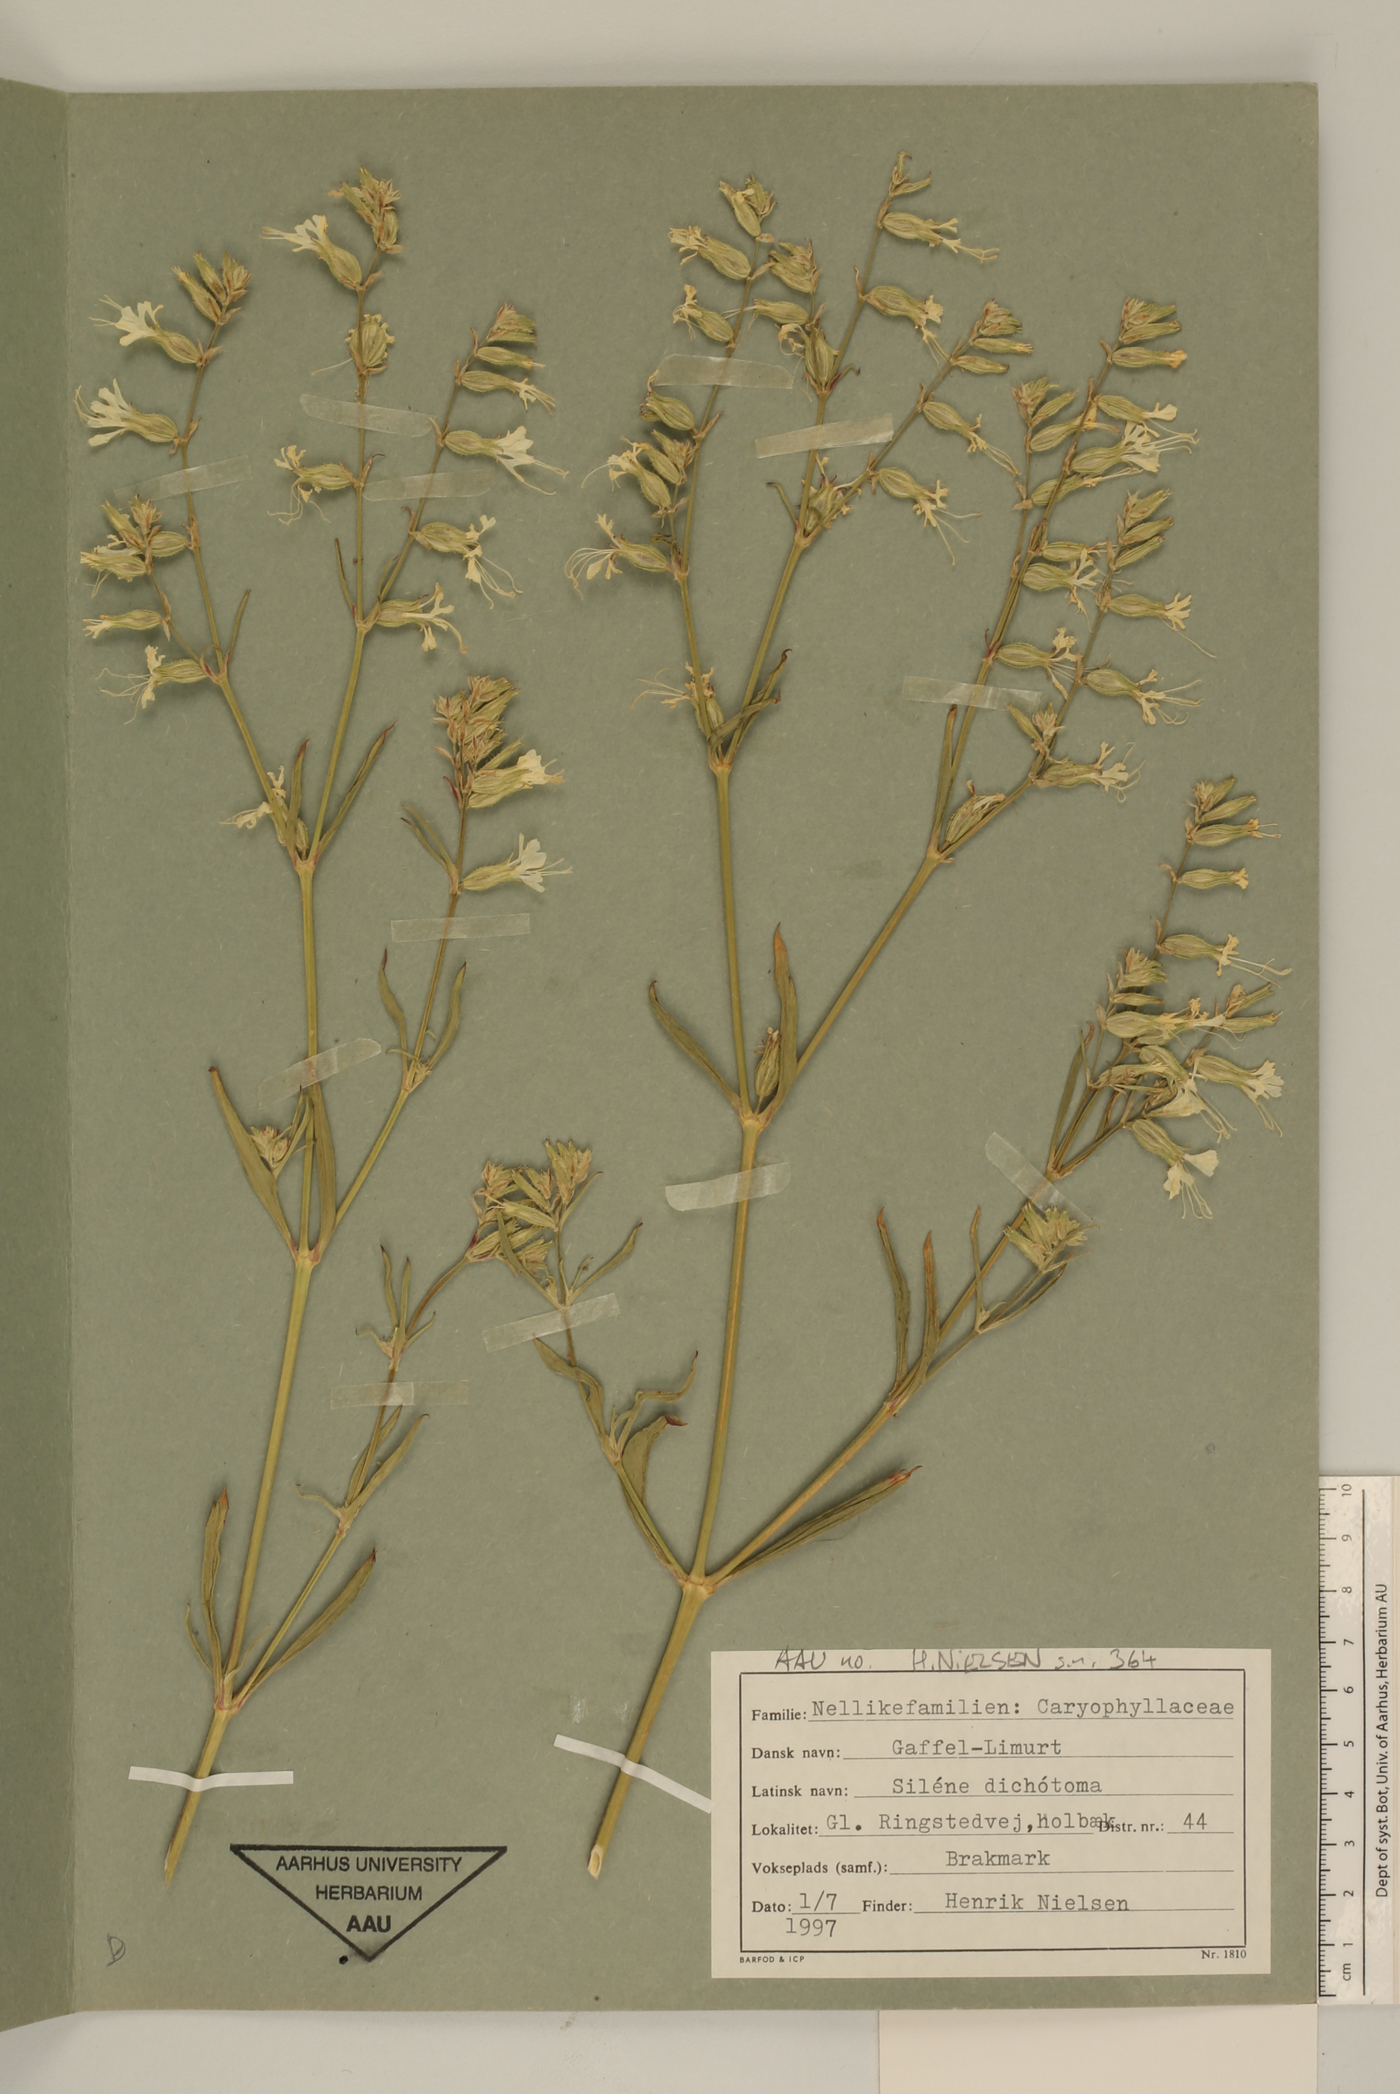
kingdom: Plantae
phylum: Tracheophyta
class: Magnoliopsida
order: Caryophyllales
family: Caryophyllaceae
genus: Silene
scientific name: Silene dichotoma
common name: Forked catchfly
